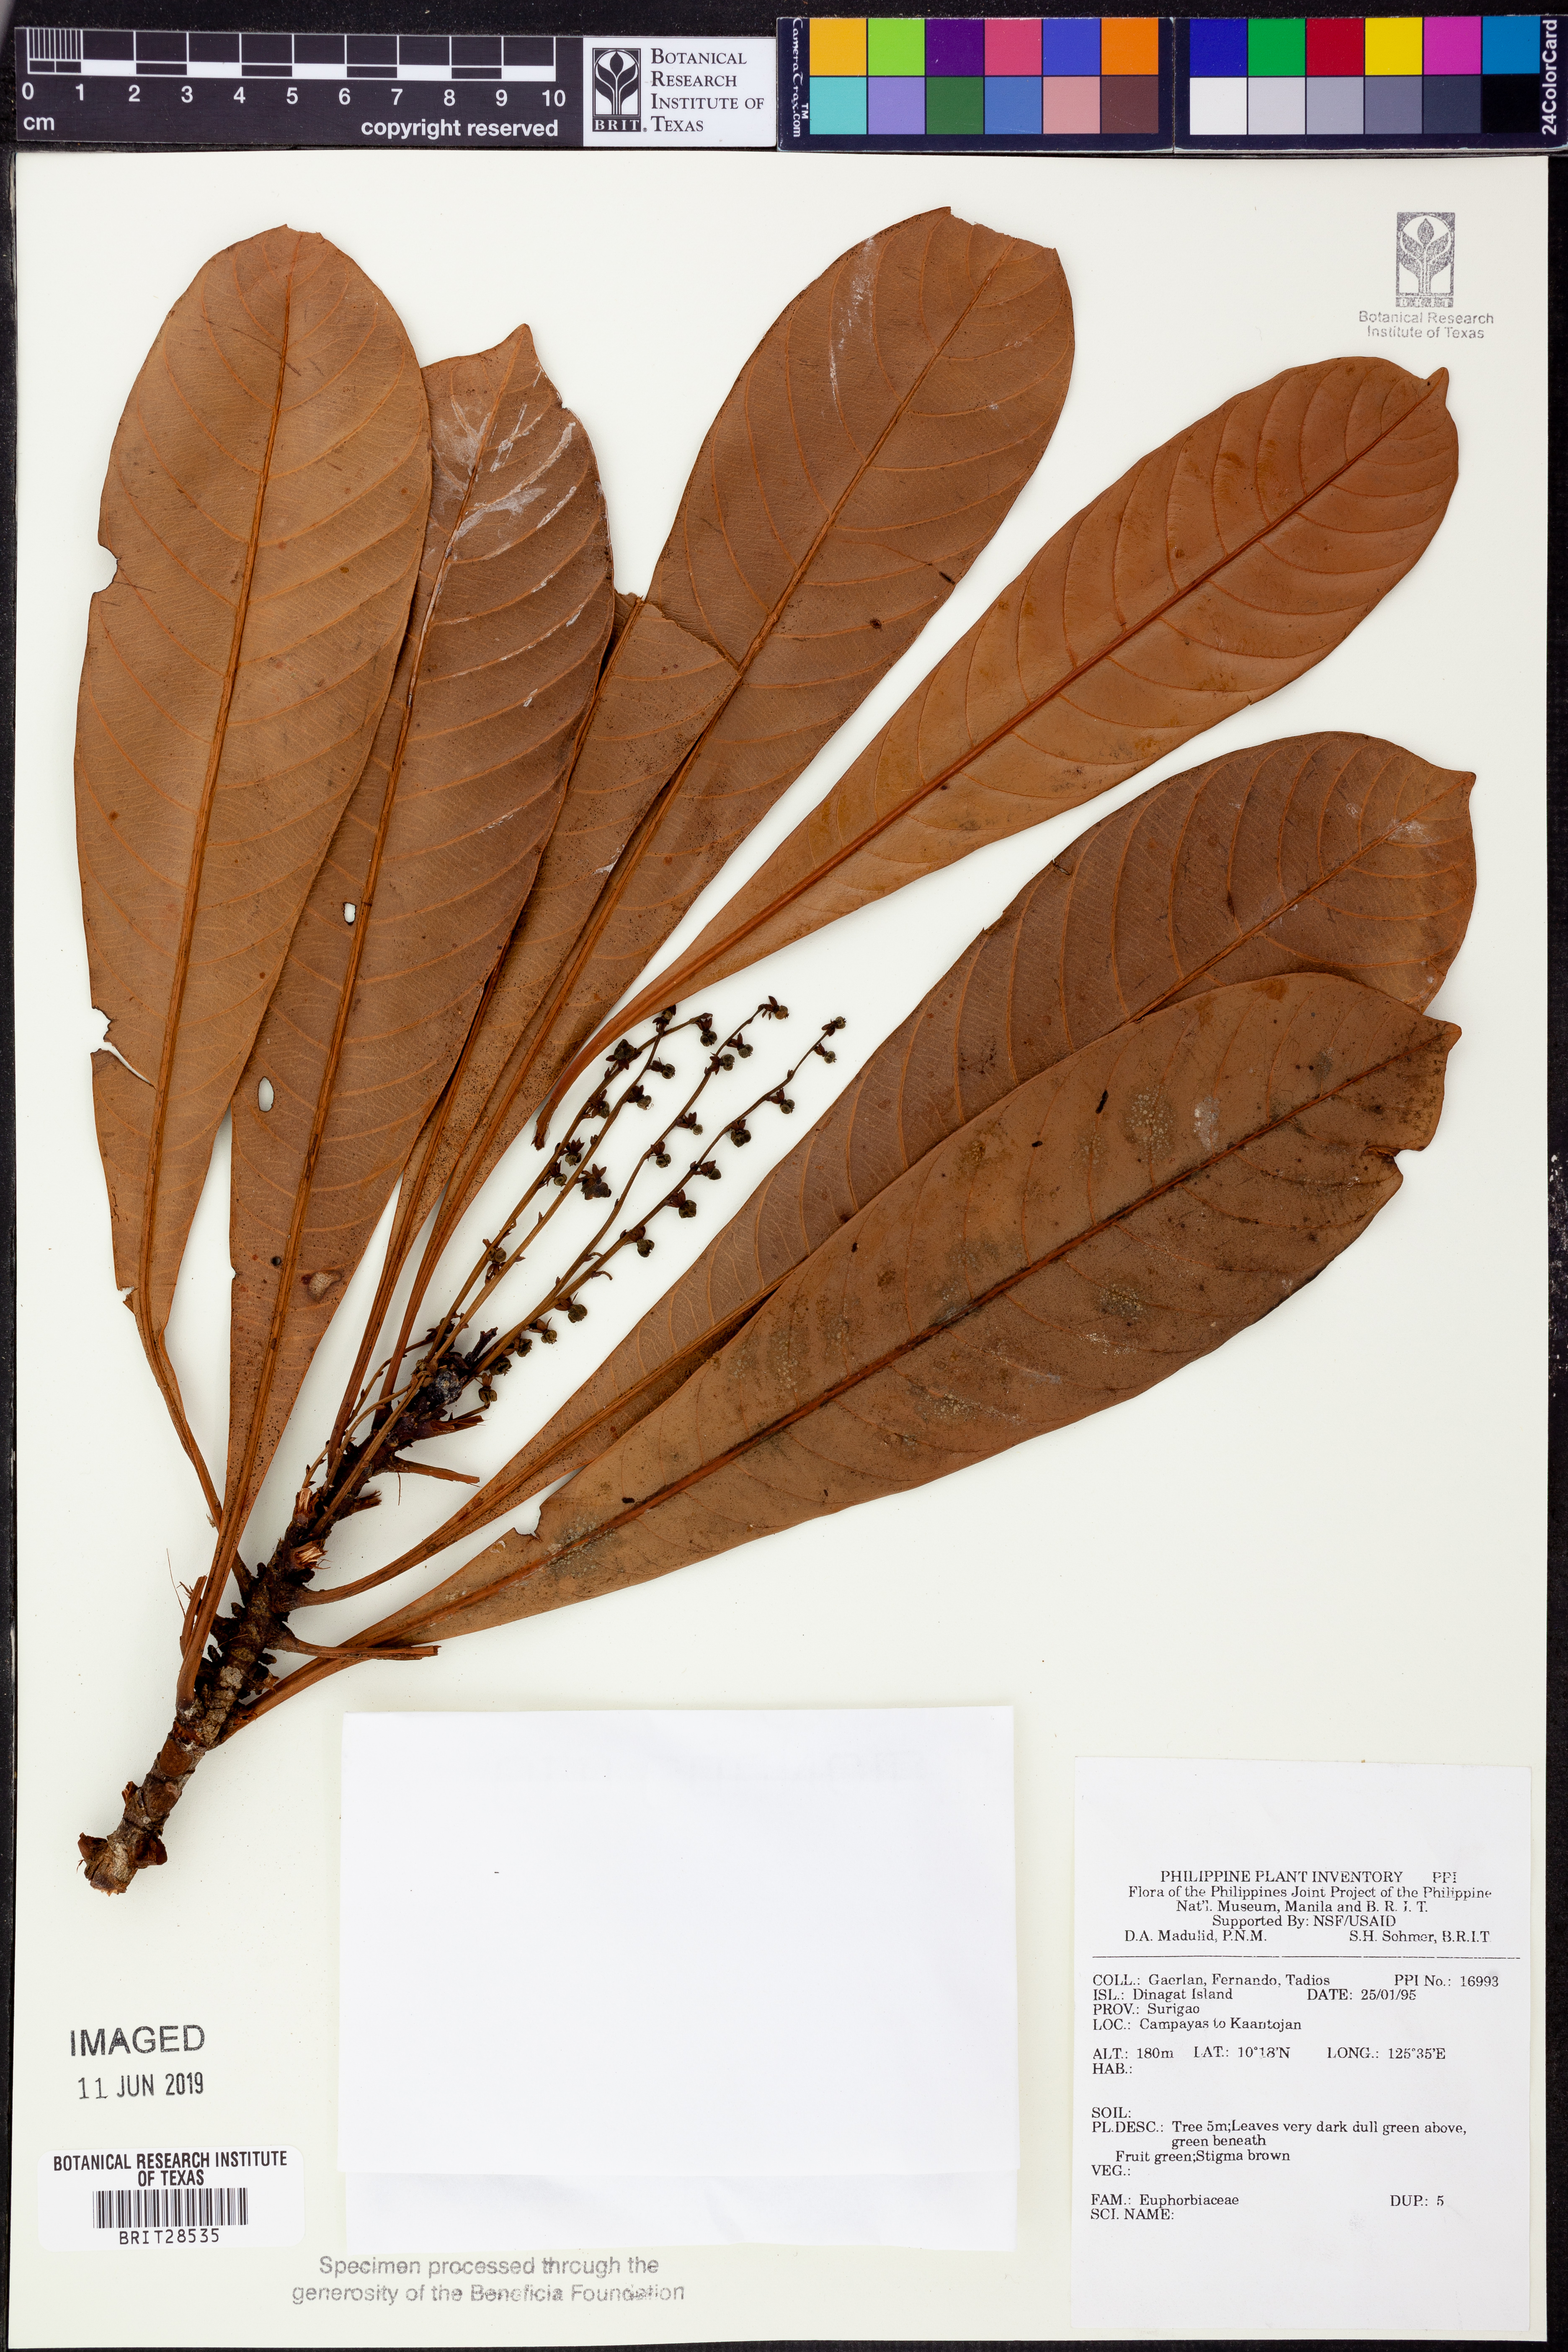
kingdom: Plantae
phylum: Tracheophyta
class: Magnoliopsida
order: Malpighiales
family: Euphorbiaceae
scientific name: Euphorbiaceae
